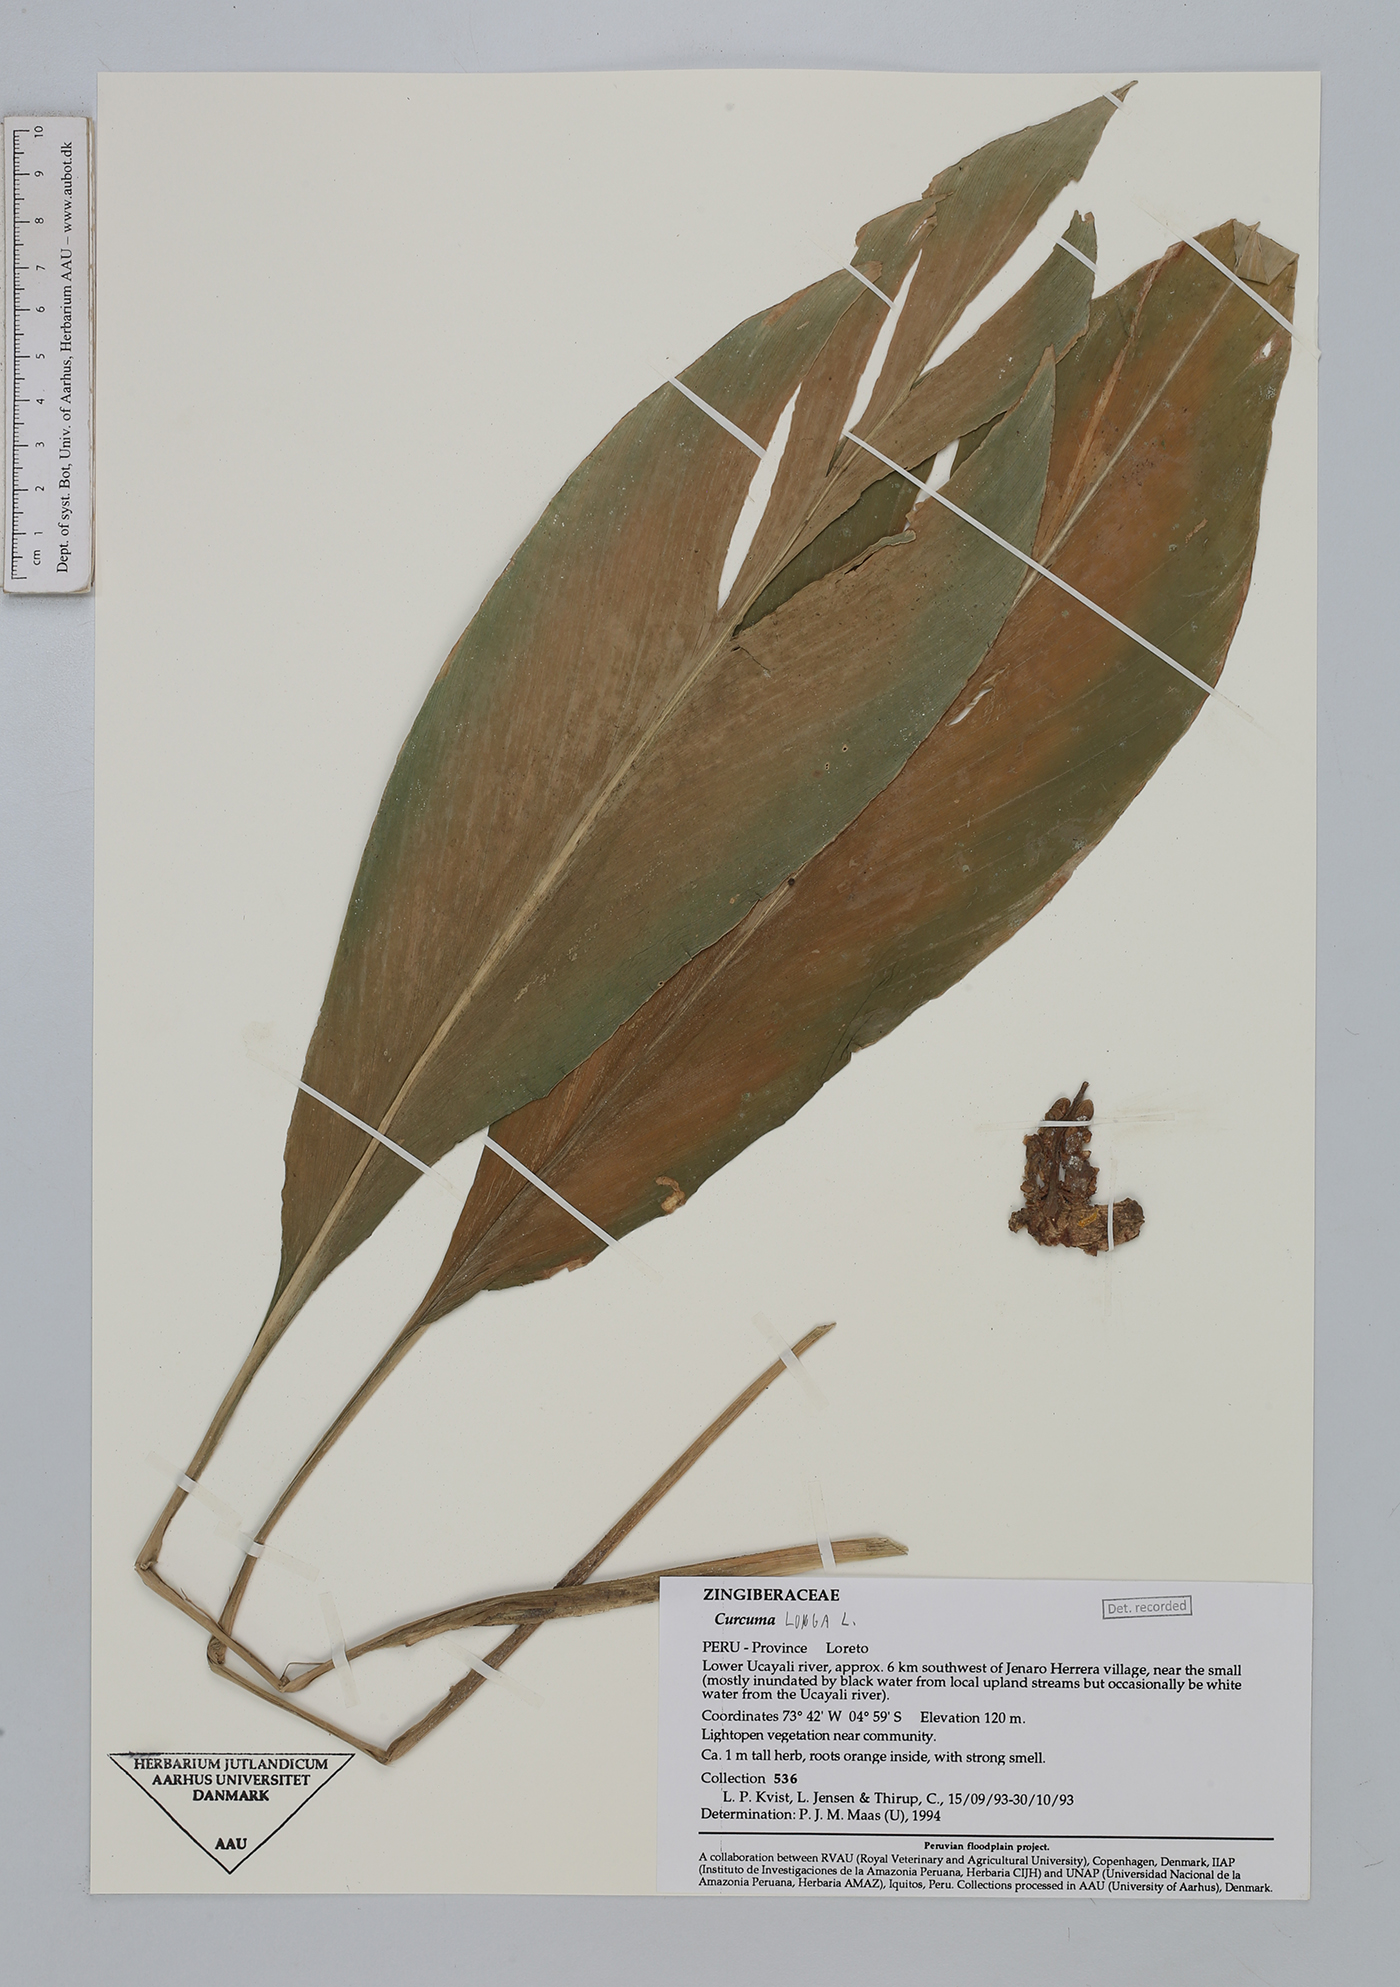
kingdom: Plantae
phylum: Tracheophyta
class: Liliopsida
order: Zingiberales
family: Zingiberaceae
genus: Curcuma
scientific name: Curcuma longa
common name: Turmeric
